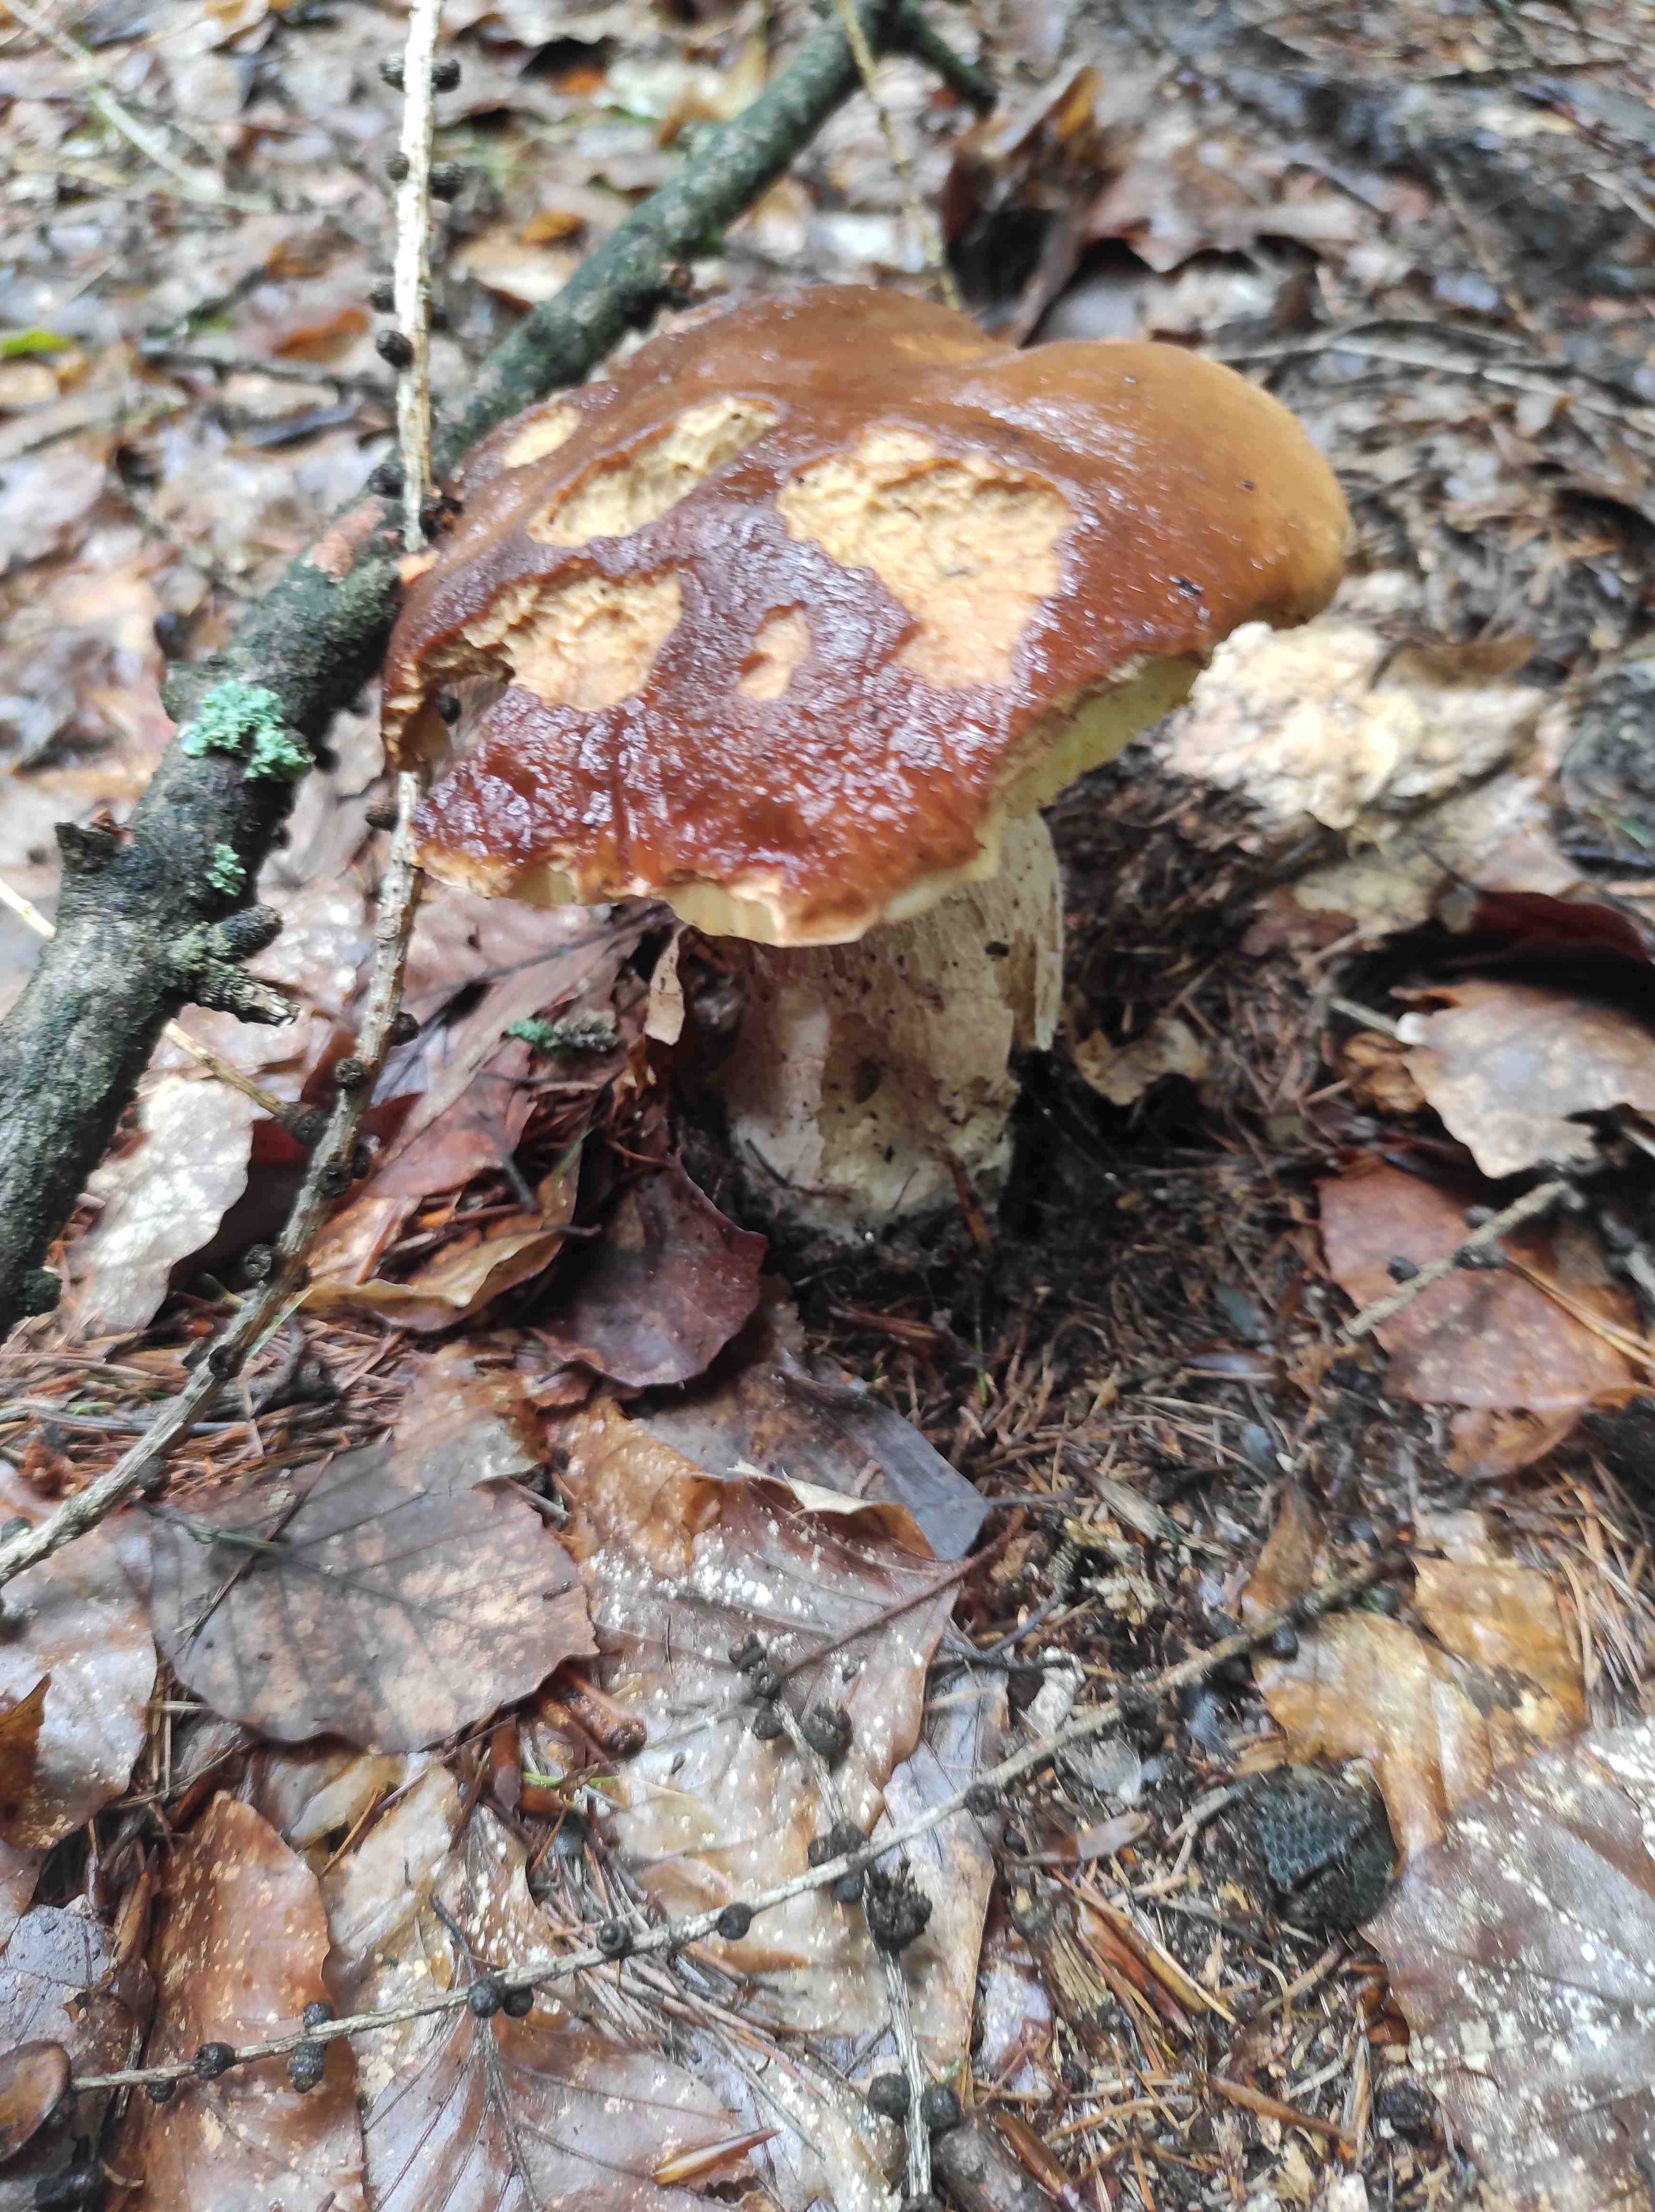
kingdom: Fungi
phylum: Basidiomycota
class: Agaricomycetes
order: Boletales
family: Boletaceae
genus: Boletus
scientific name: Boletus edulis
